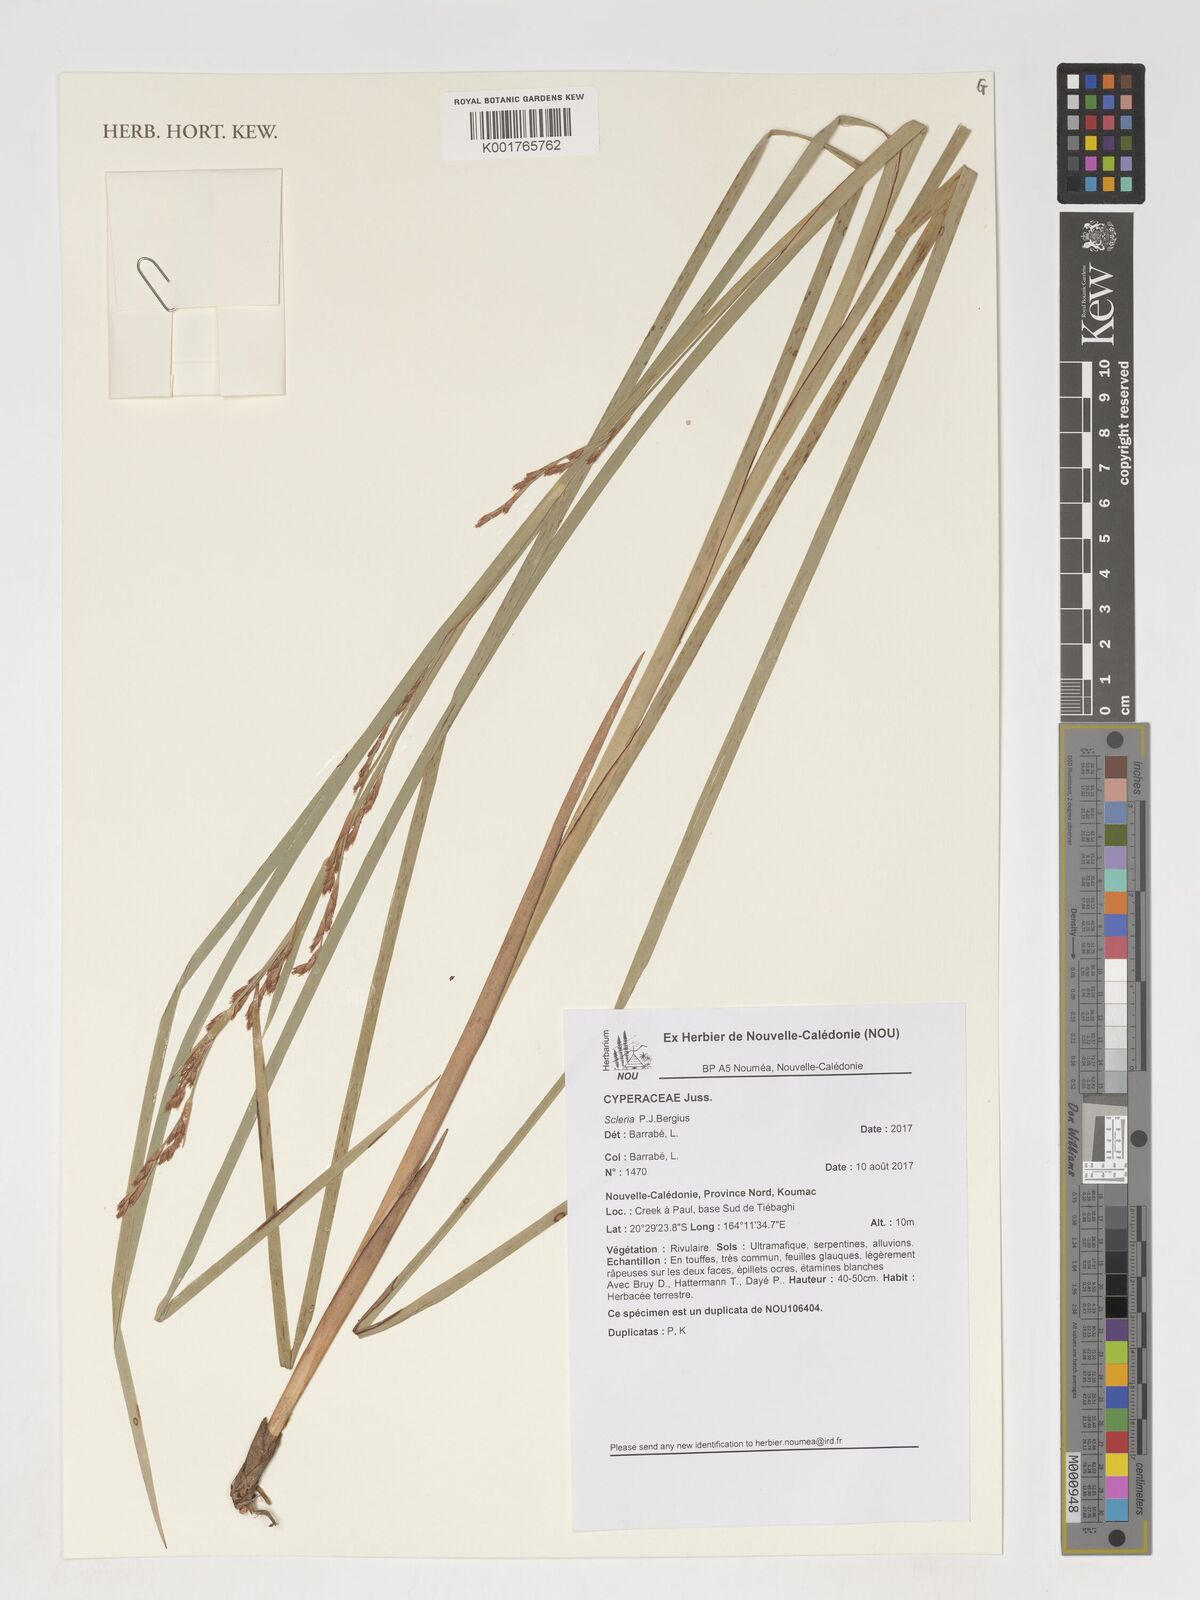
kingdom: Plantae
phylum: Tracheophyta
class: Liliopsida
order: Poales
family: Cyperaceae
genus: Scleria
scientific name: Scleria
